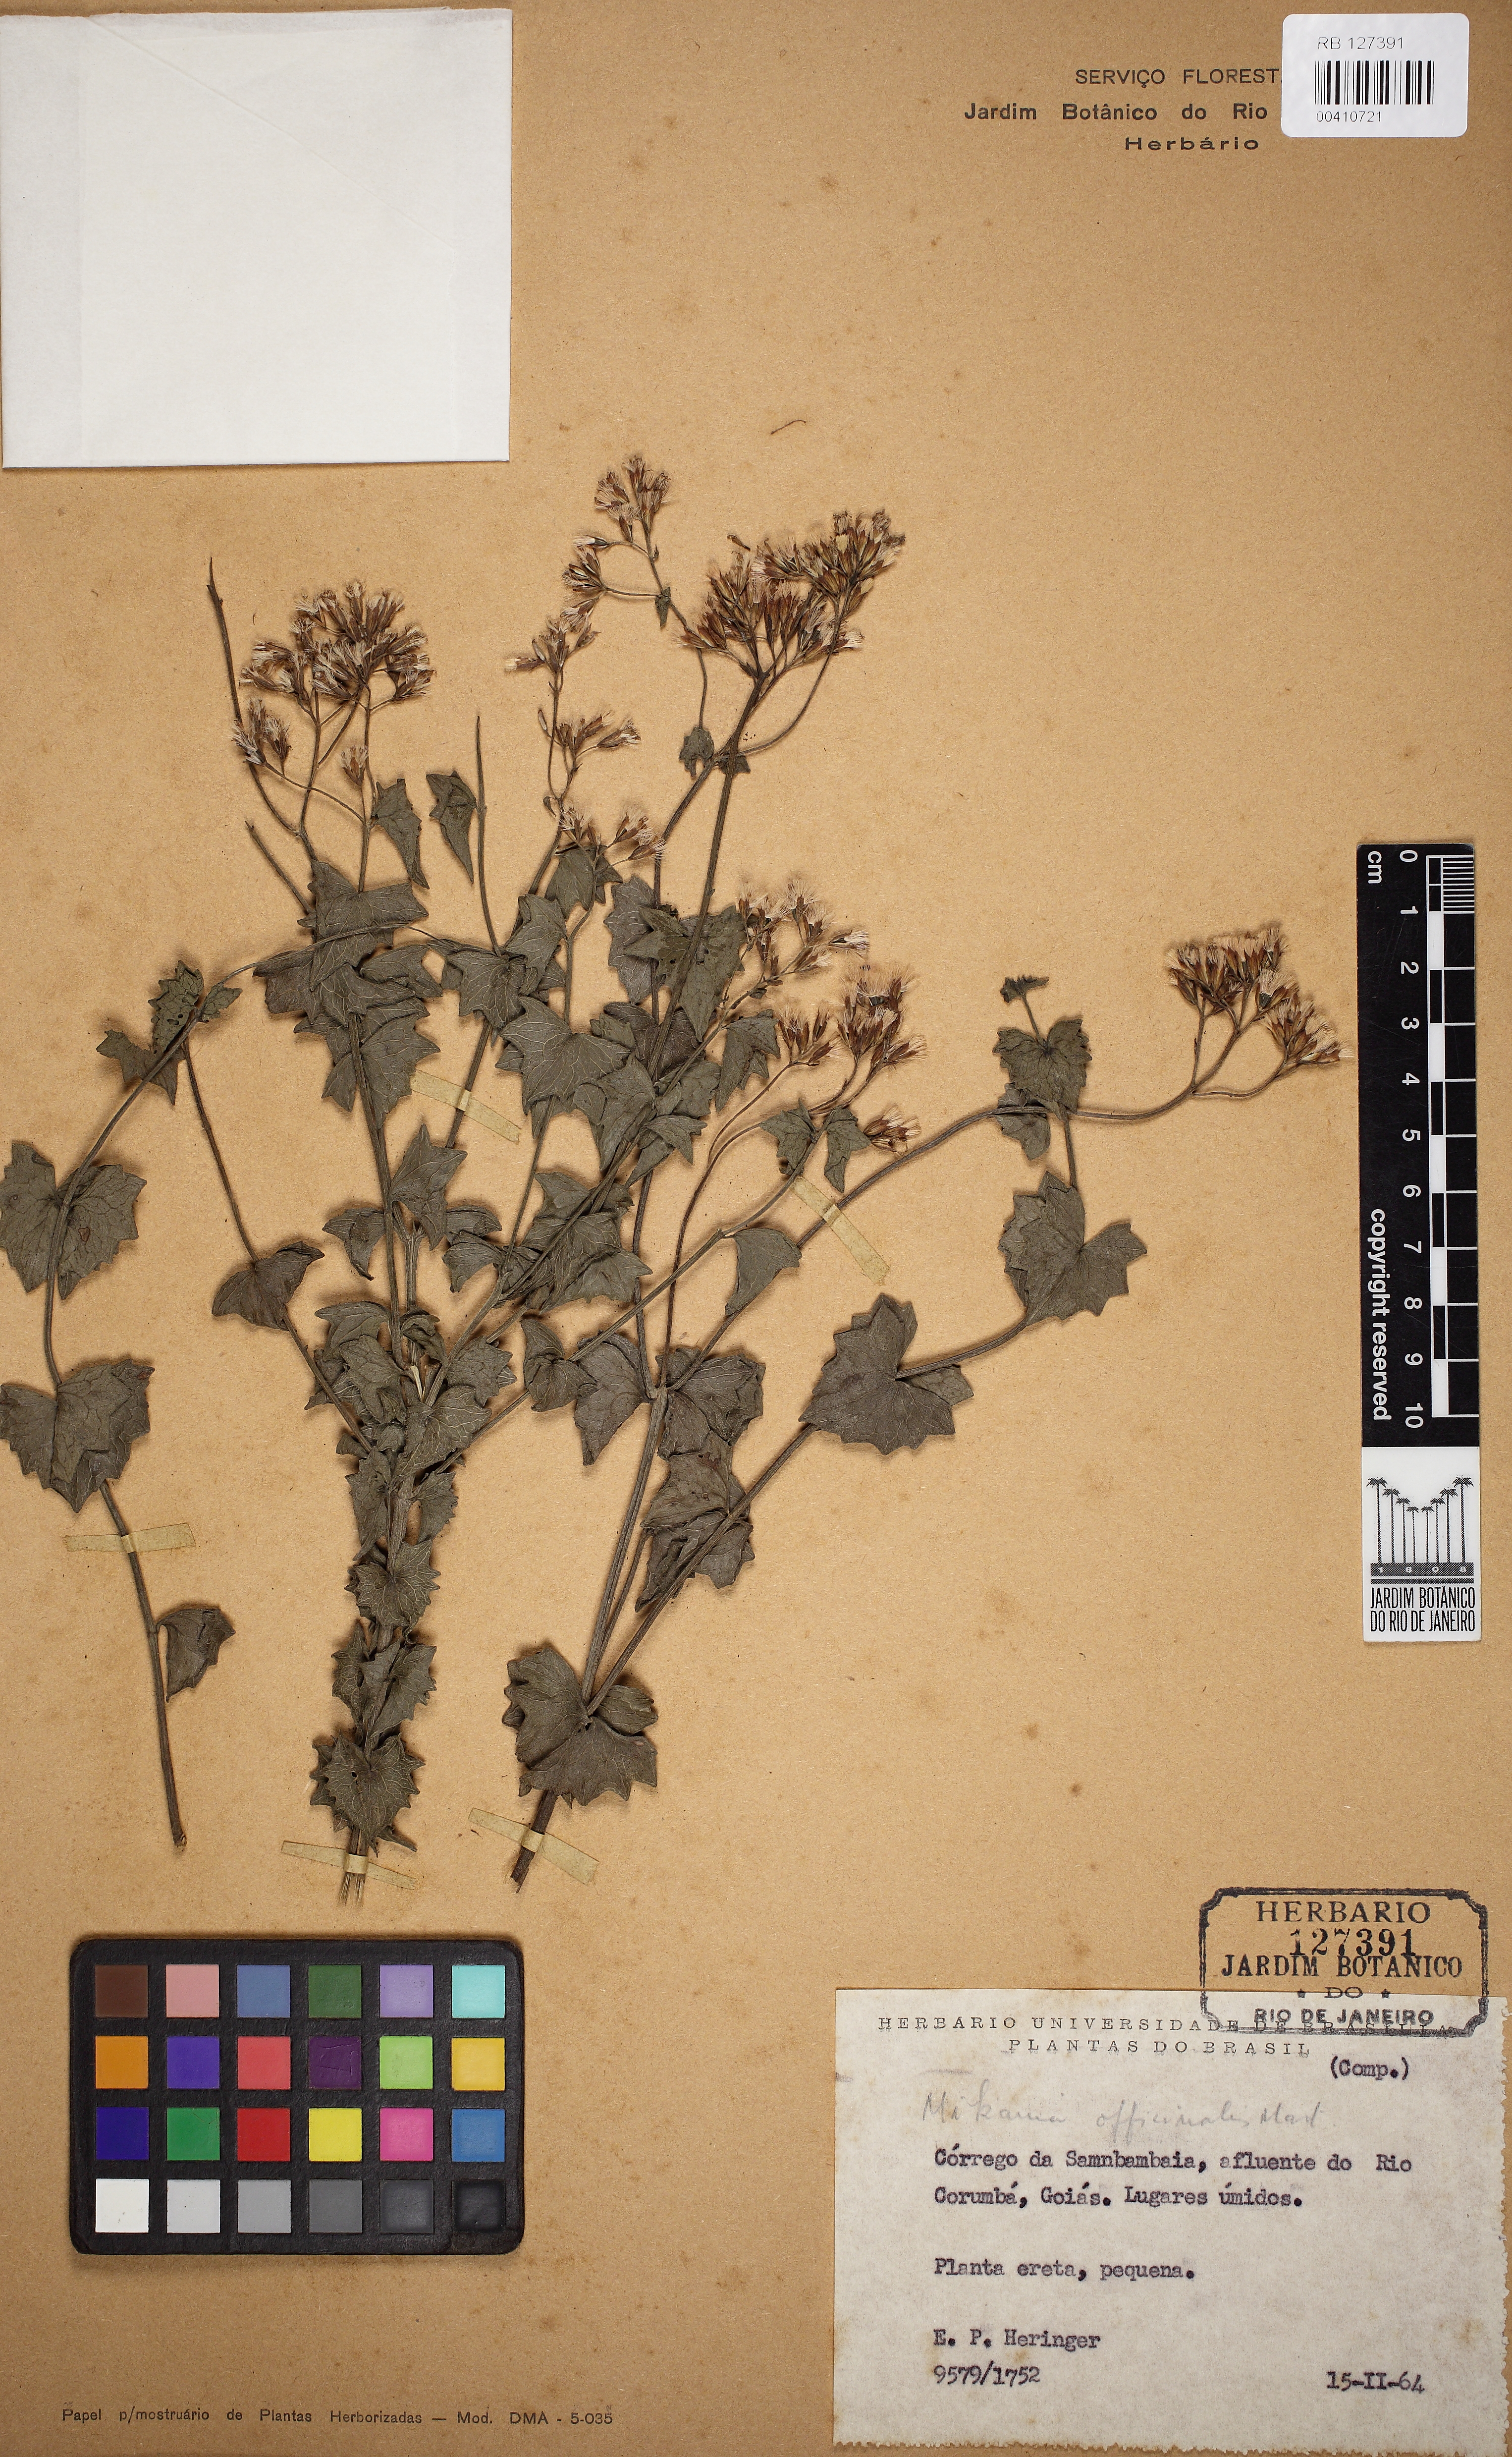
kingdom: Plantae
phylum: Tracheophyta
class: Magnoliopsida
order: Asterales
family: Asteraceae
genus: Mikania
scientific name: Mikania officinalis
